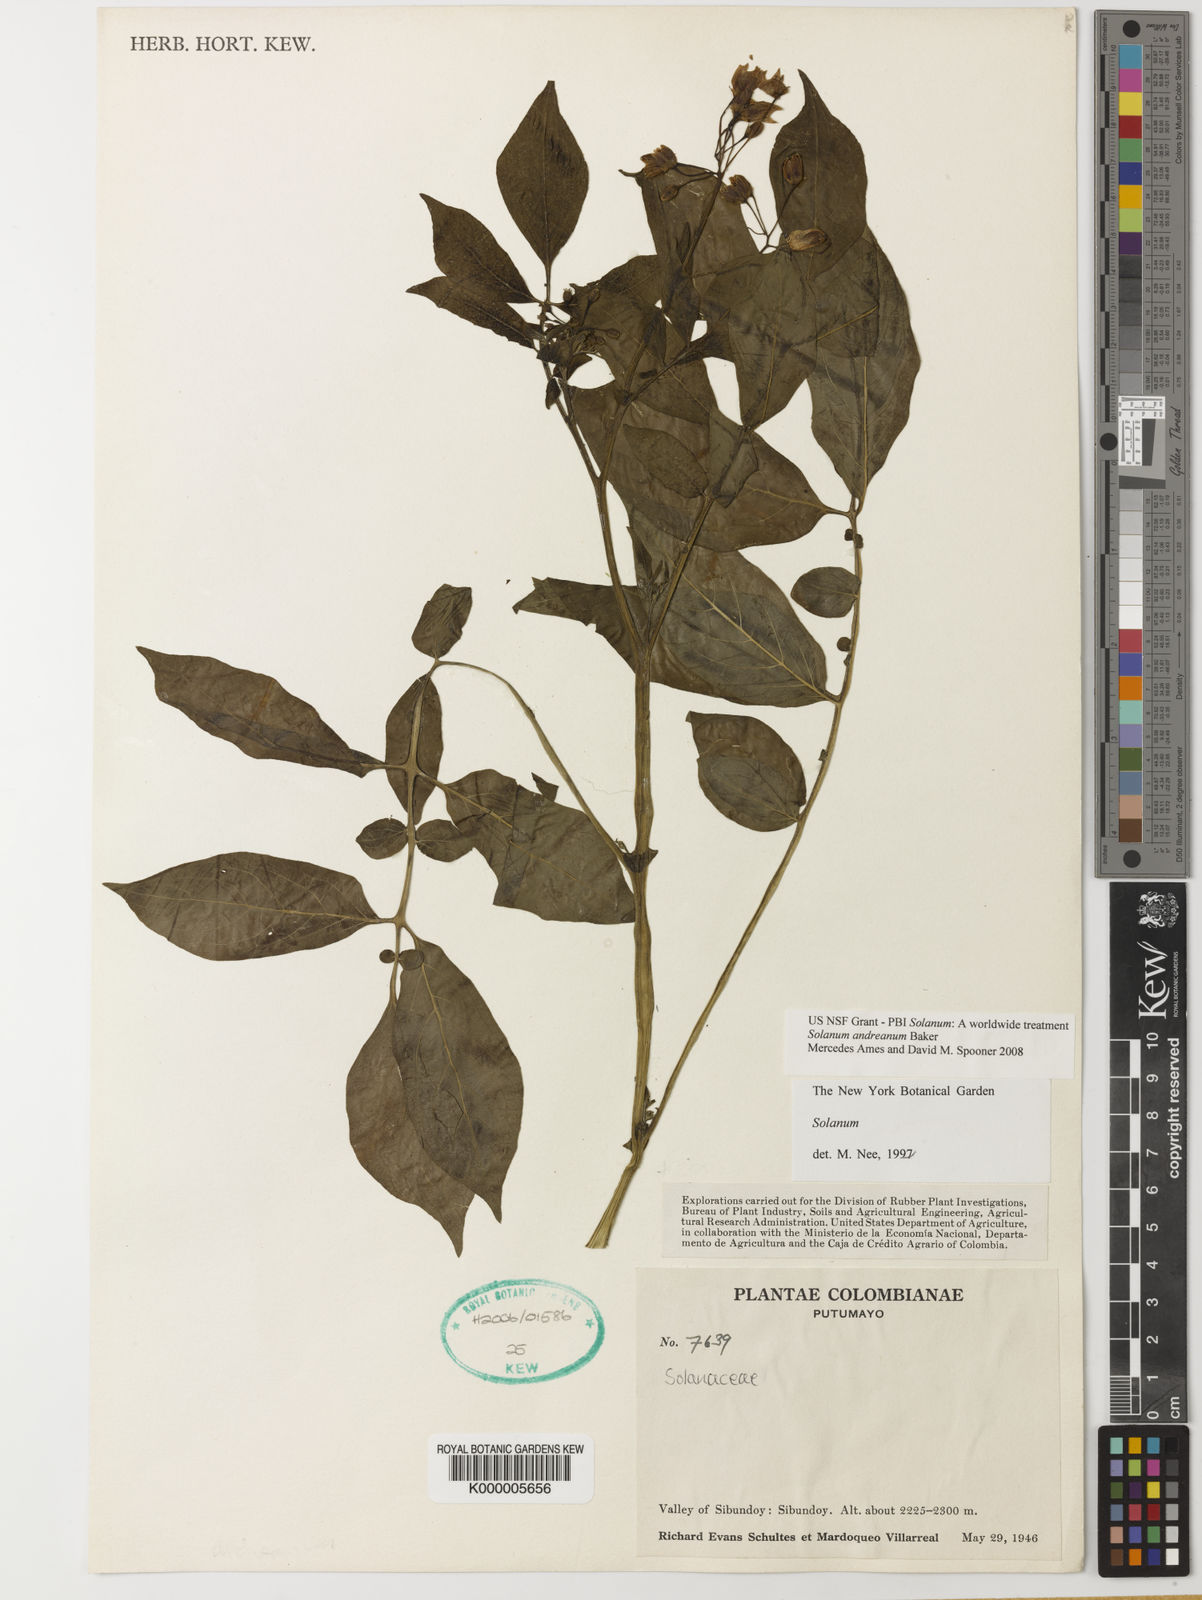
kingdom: Plantae
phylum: Tracheophyta
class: Magnoliopsida
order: Solanales
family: Solanaceae
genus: Solanum
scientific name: Solanum andreanum
